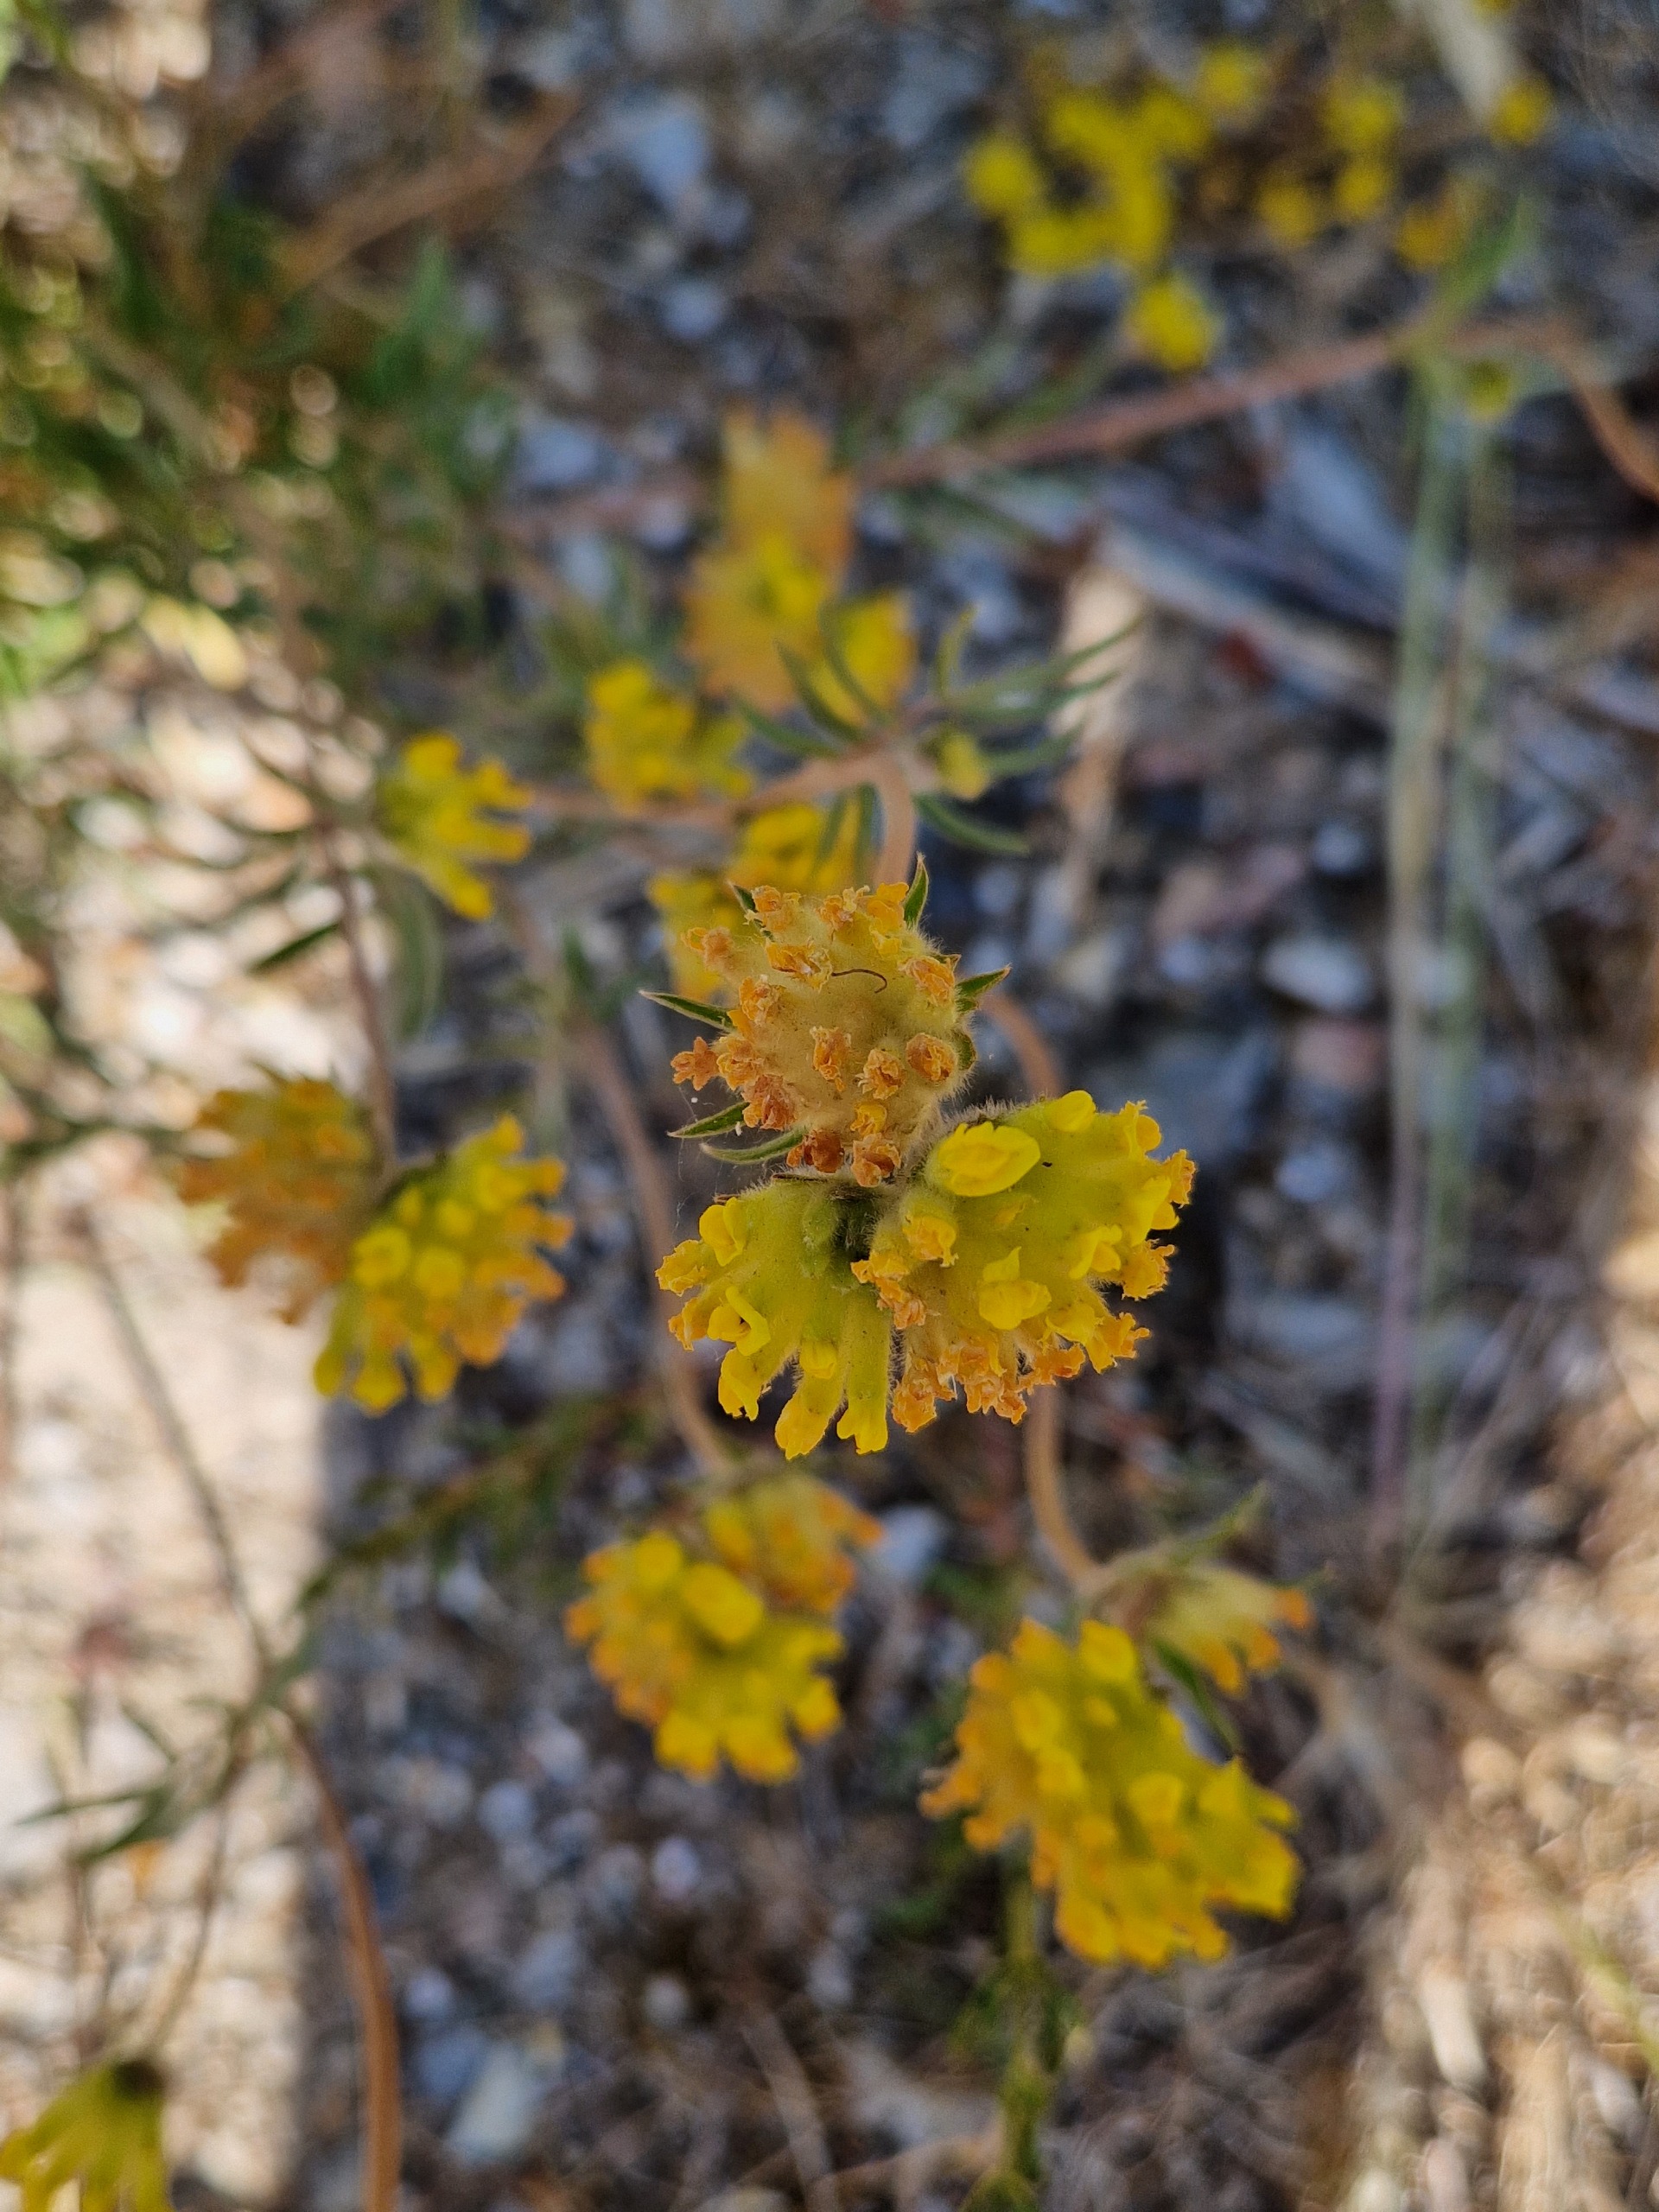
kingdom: Plantae
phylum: Tracheophyta
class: Magnoliopsida
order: Fabales
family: Fabaceae
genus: Anthyllis
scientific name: Anthyllis vulneraria
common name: Rundbælg
